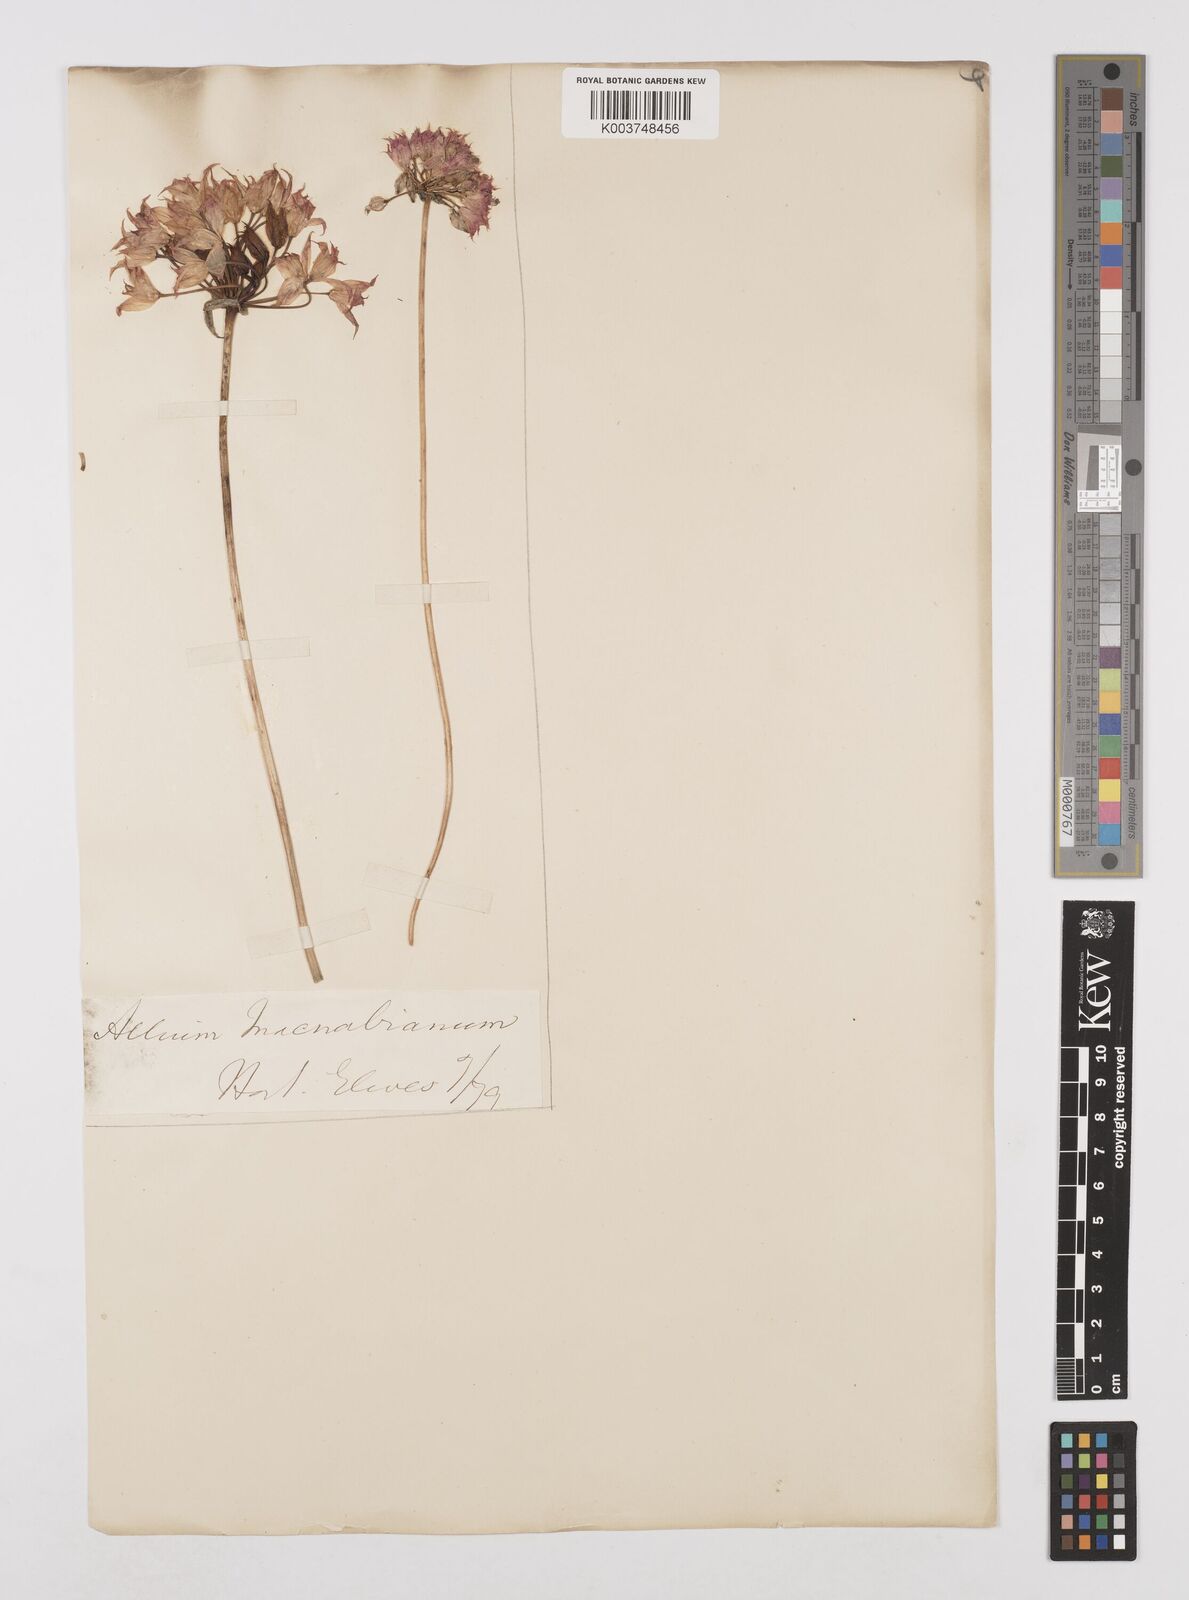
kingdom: Plantae
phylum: Tracheophyta
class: Liliopsida
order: Asparagales
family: Amaryllidaceae
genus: Allium
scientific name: Allium macnabianum
